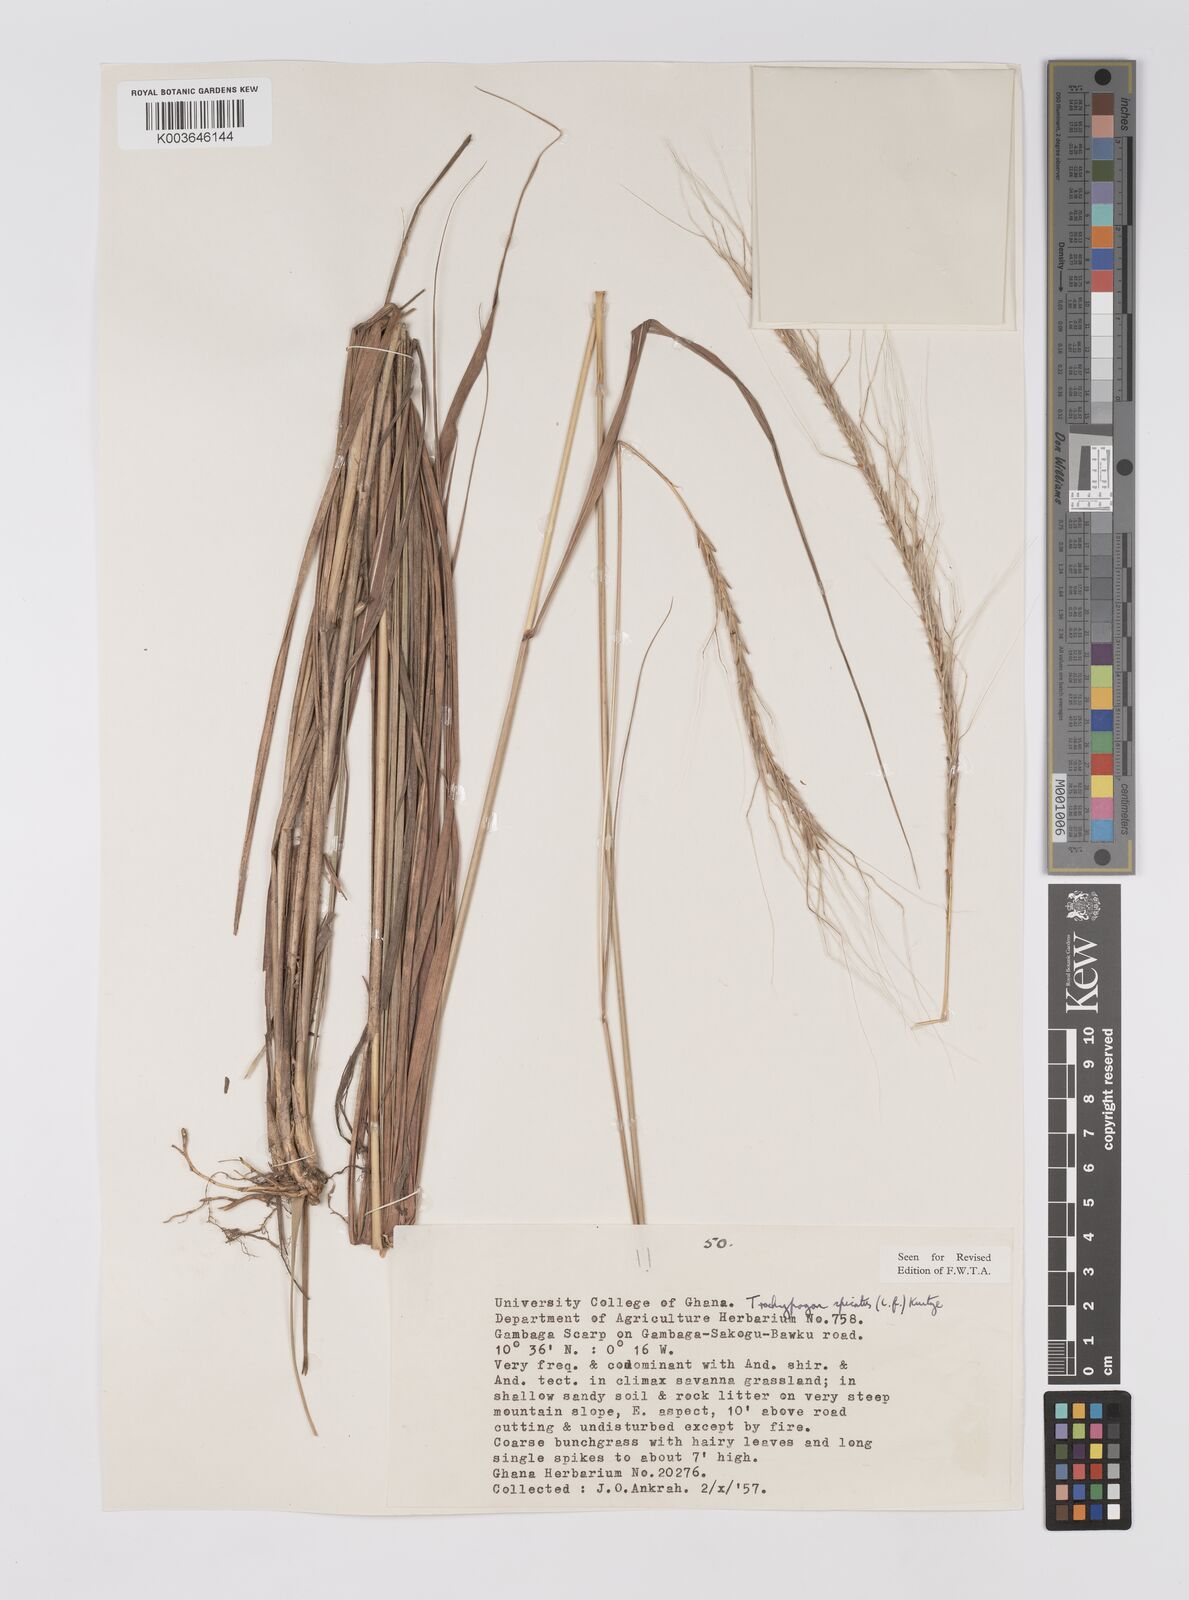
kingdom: Plantae
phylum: Tracheophyta
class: Liliopsida
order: Poales
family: Poaceae
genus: Trachypogon
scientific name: Trachypogon spicatus
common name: Crinkle-awn
